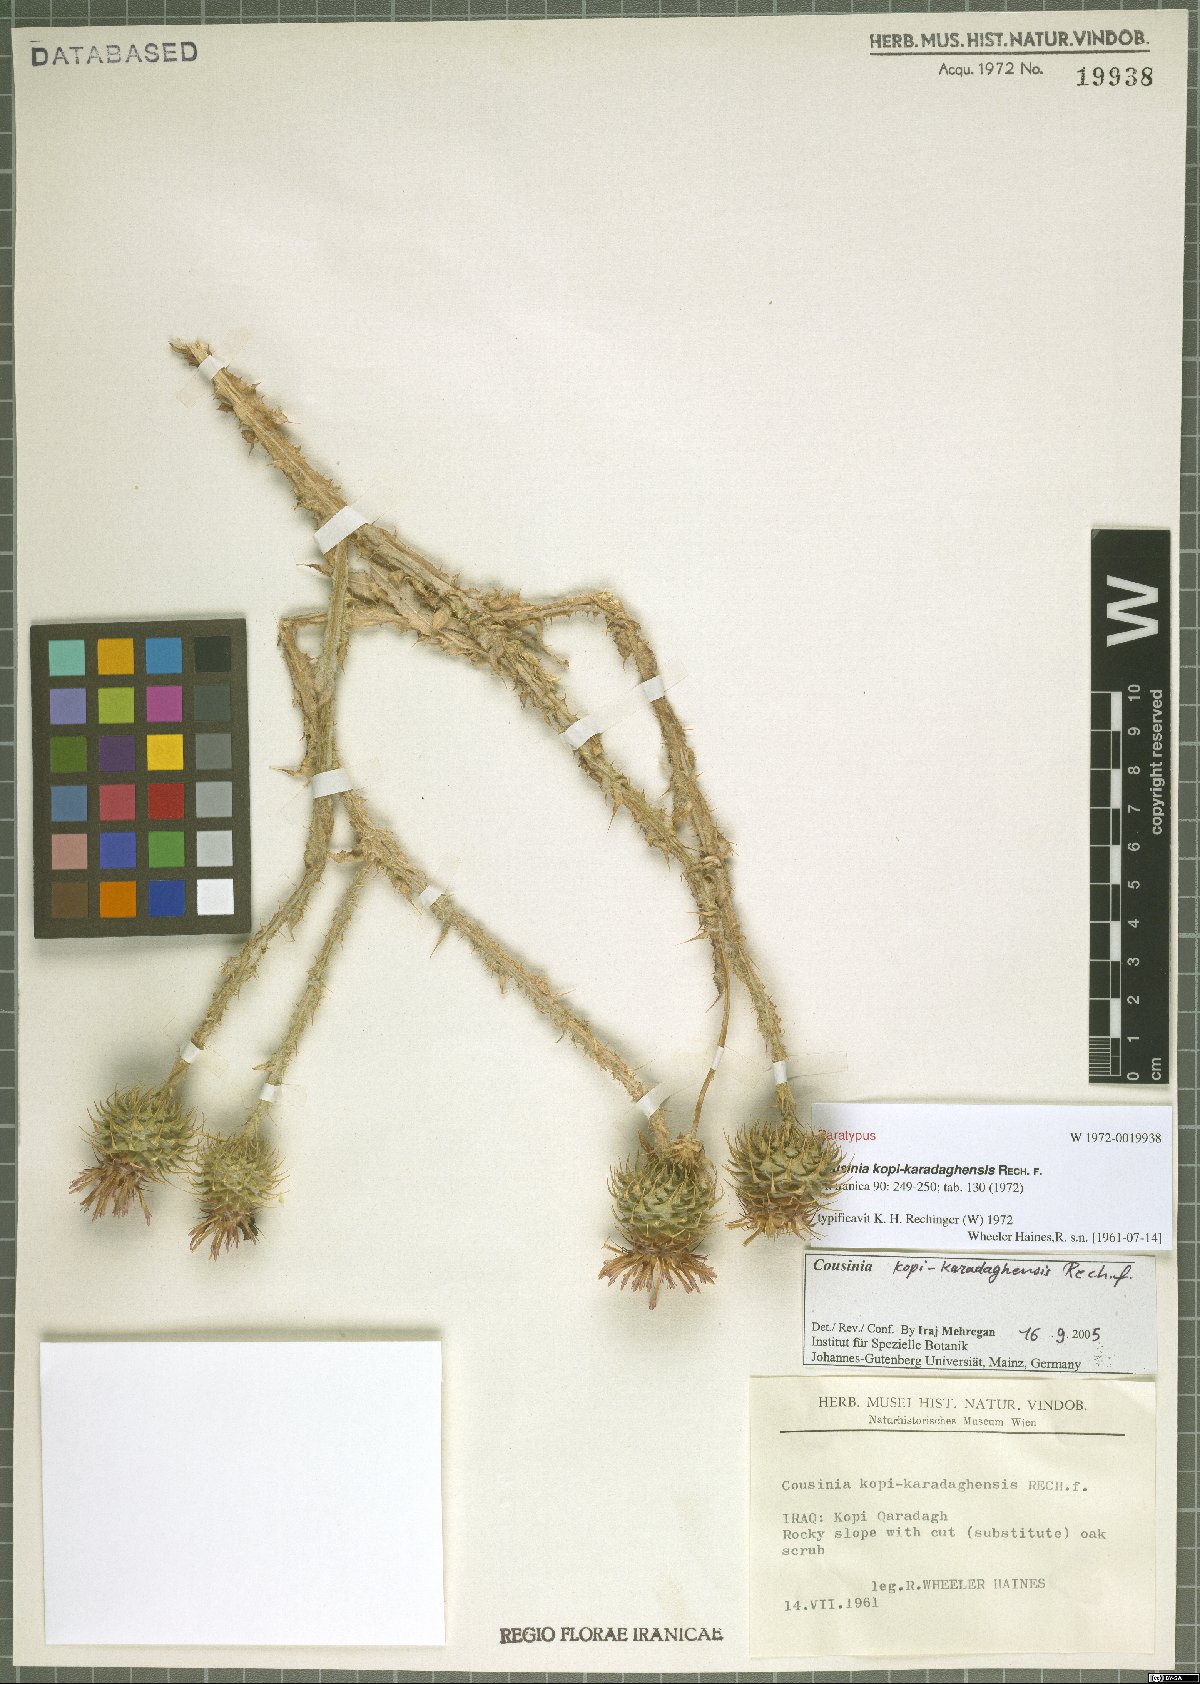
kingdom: Plantae
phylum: Tracheophyta
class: Magnoliopsida
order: Asterales
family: Asteraceae
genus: Cousinia
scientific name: Cousinia kopi-karadaghensis
